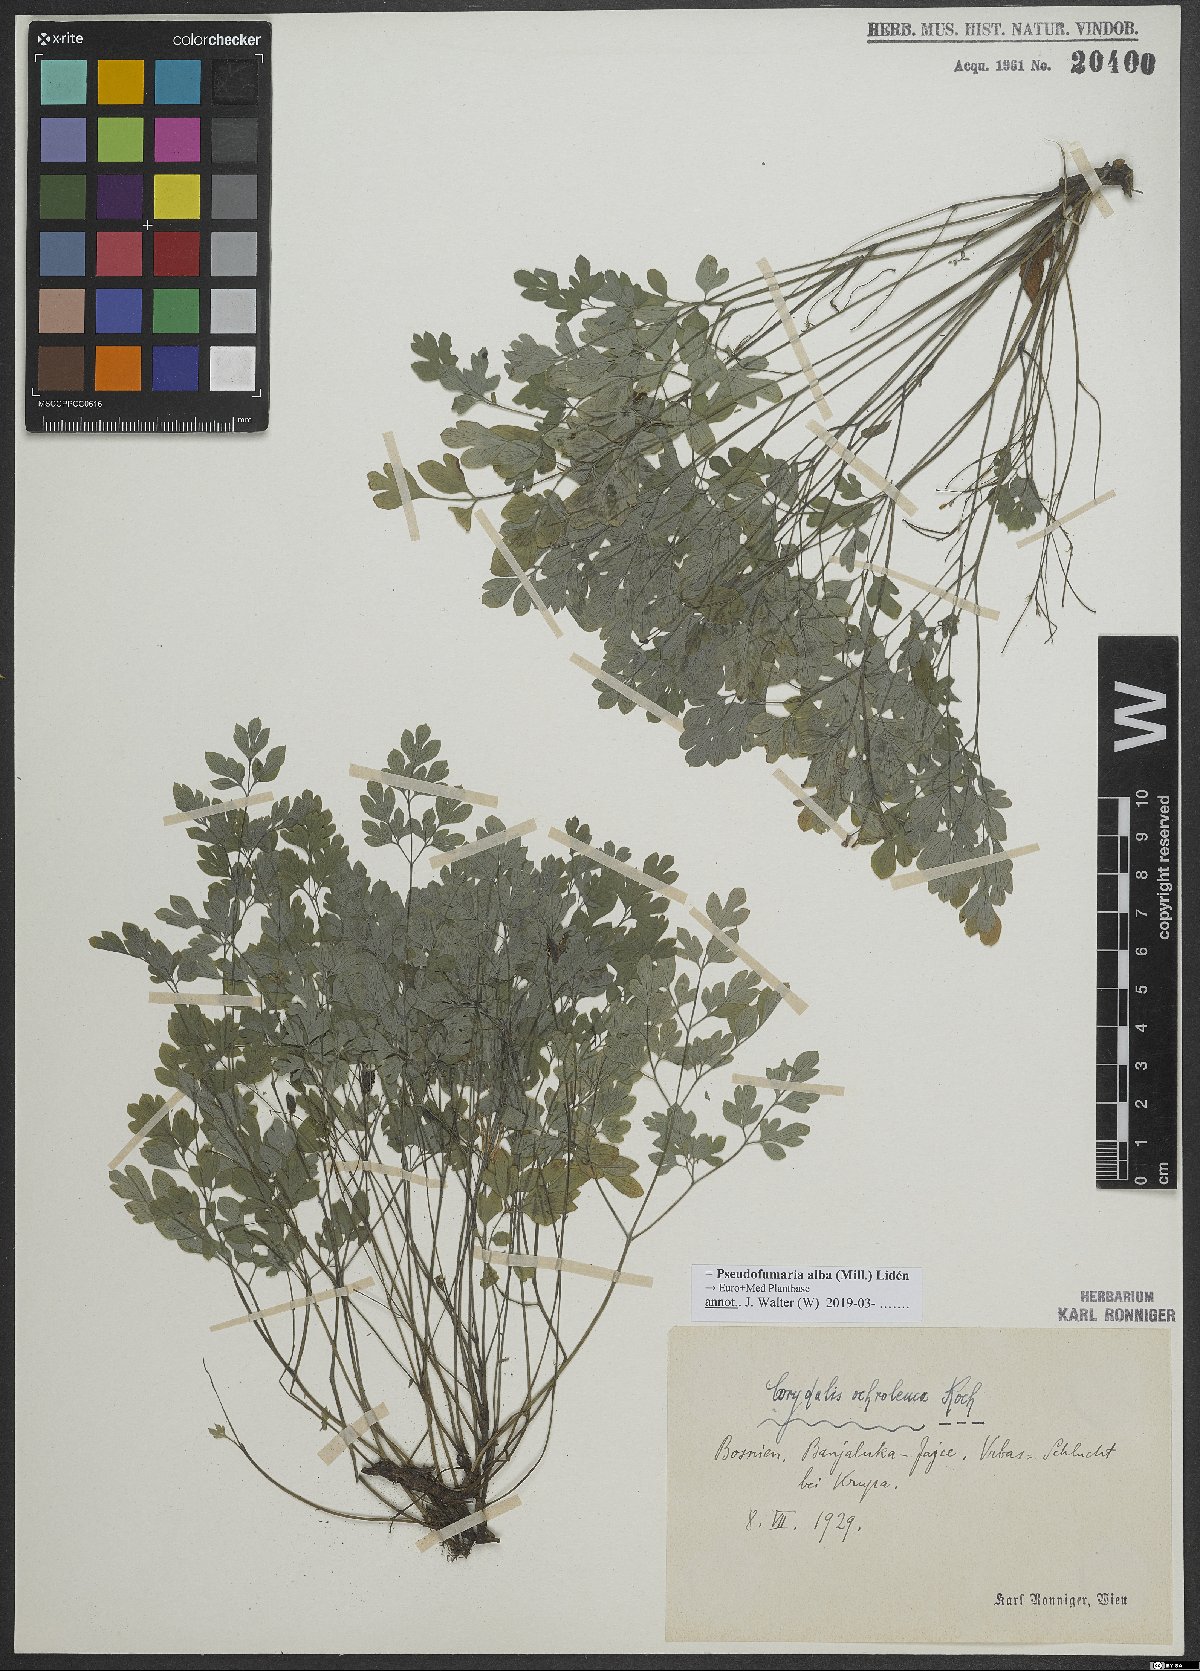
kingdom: Plantae
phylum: Tracheophyta
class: Magnoliopsida
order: Ranunculales
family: Papaveraceae
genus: Pseudofumaria
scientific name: Pseudofumaria alba
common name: Pale corydalis
